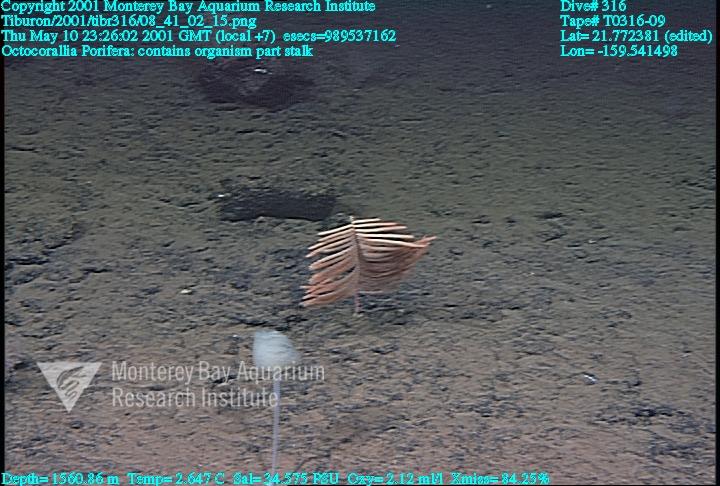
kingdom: Animalia
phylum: Porifera
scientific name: Porifera
